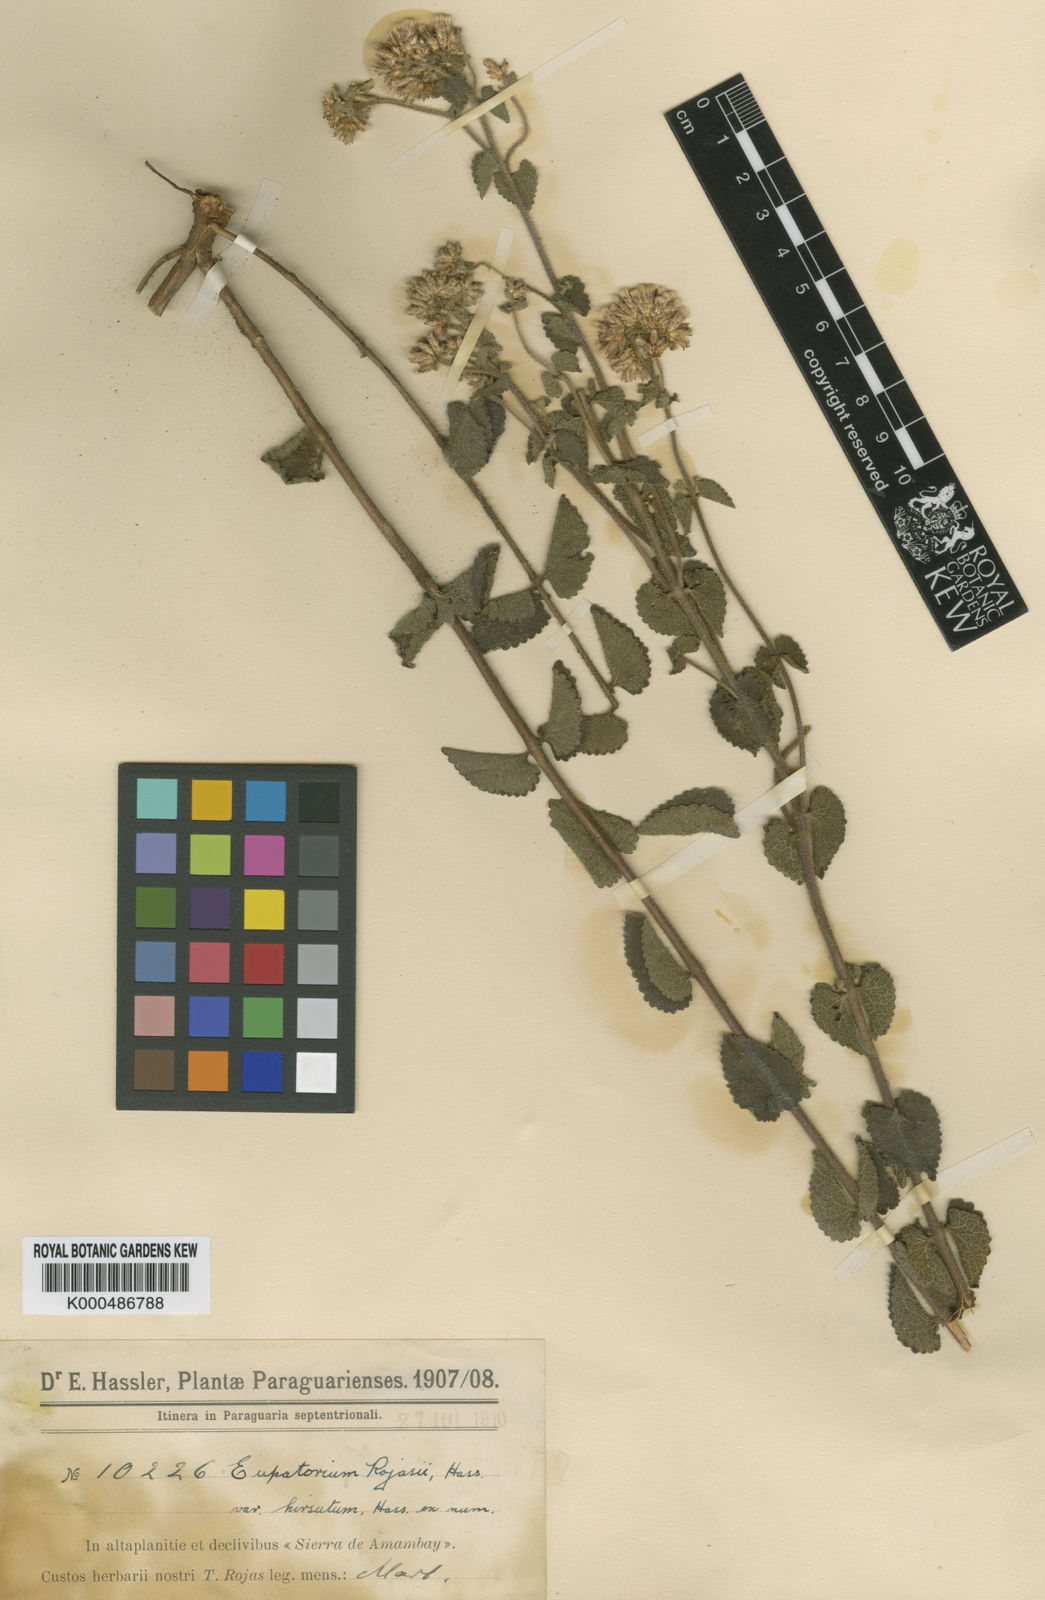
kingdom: Plantae
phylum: Tracheophyta
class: Magnoliopsida
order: Asterales
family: Asteraceae
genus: Chromolaena
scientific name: Chromolaena rojasii
